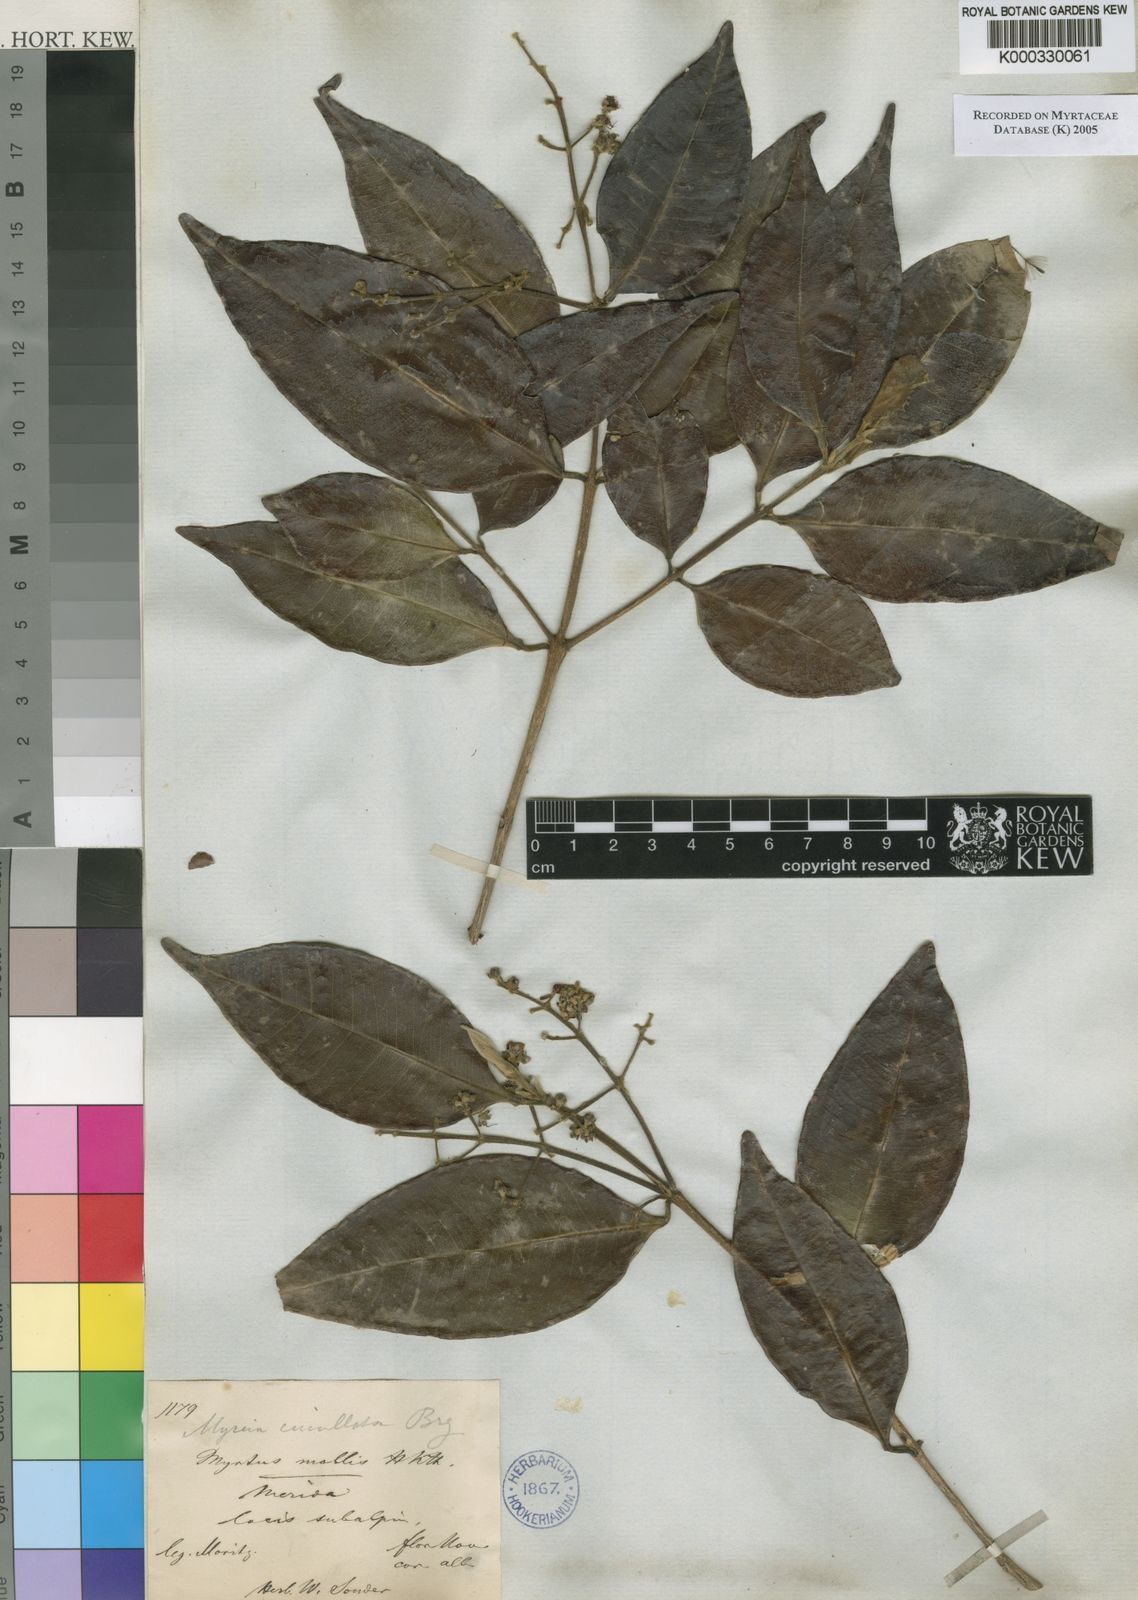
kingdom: Plantae
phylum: Tracheophyta
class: Magnoliopsida
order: Myrtales
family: Myrtaceae
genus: Myrcia
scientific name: Myrcia cucullata
